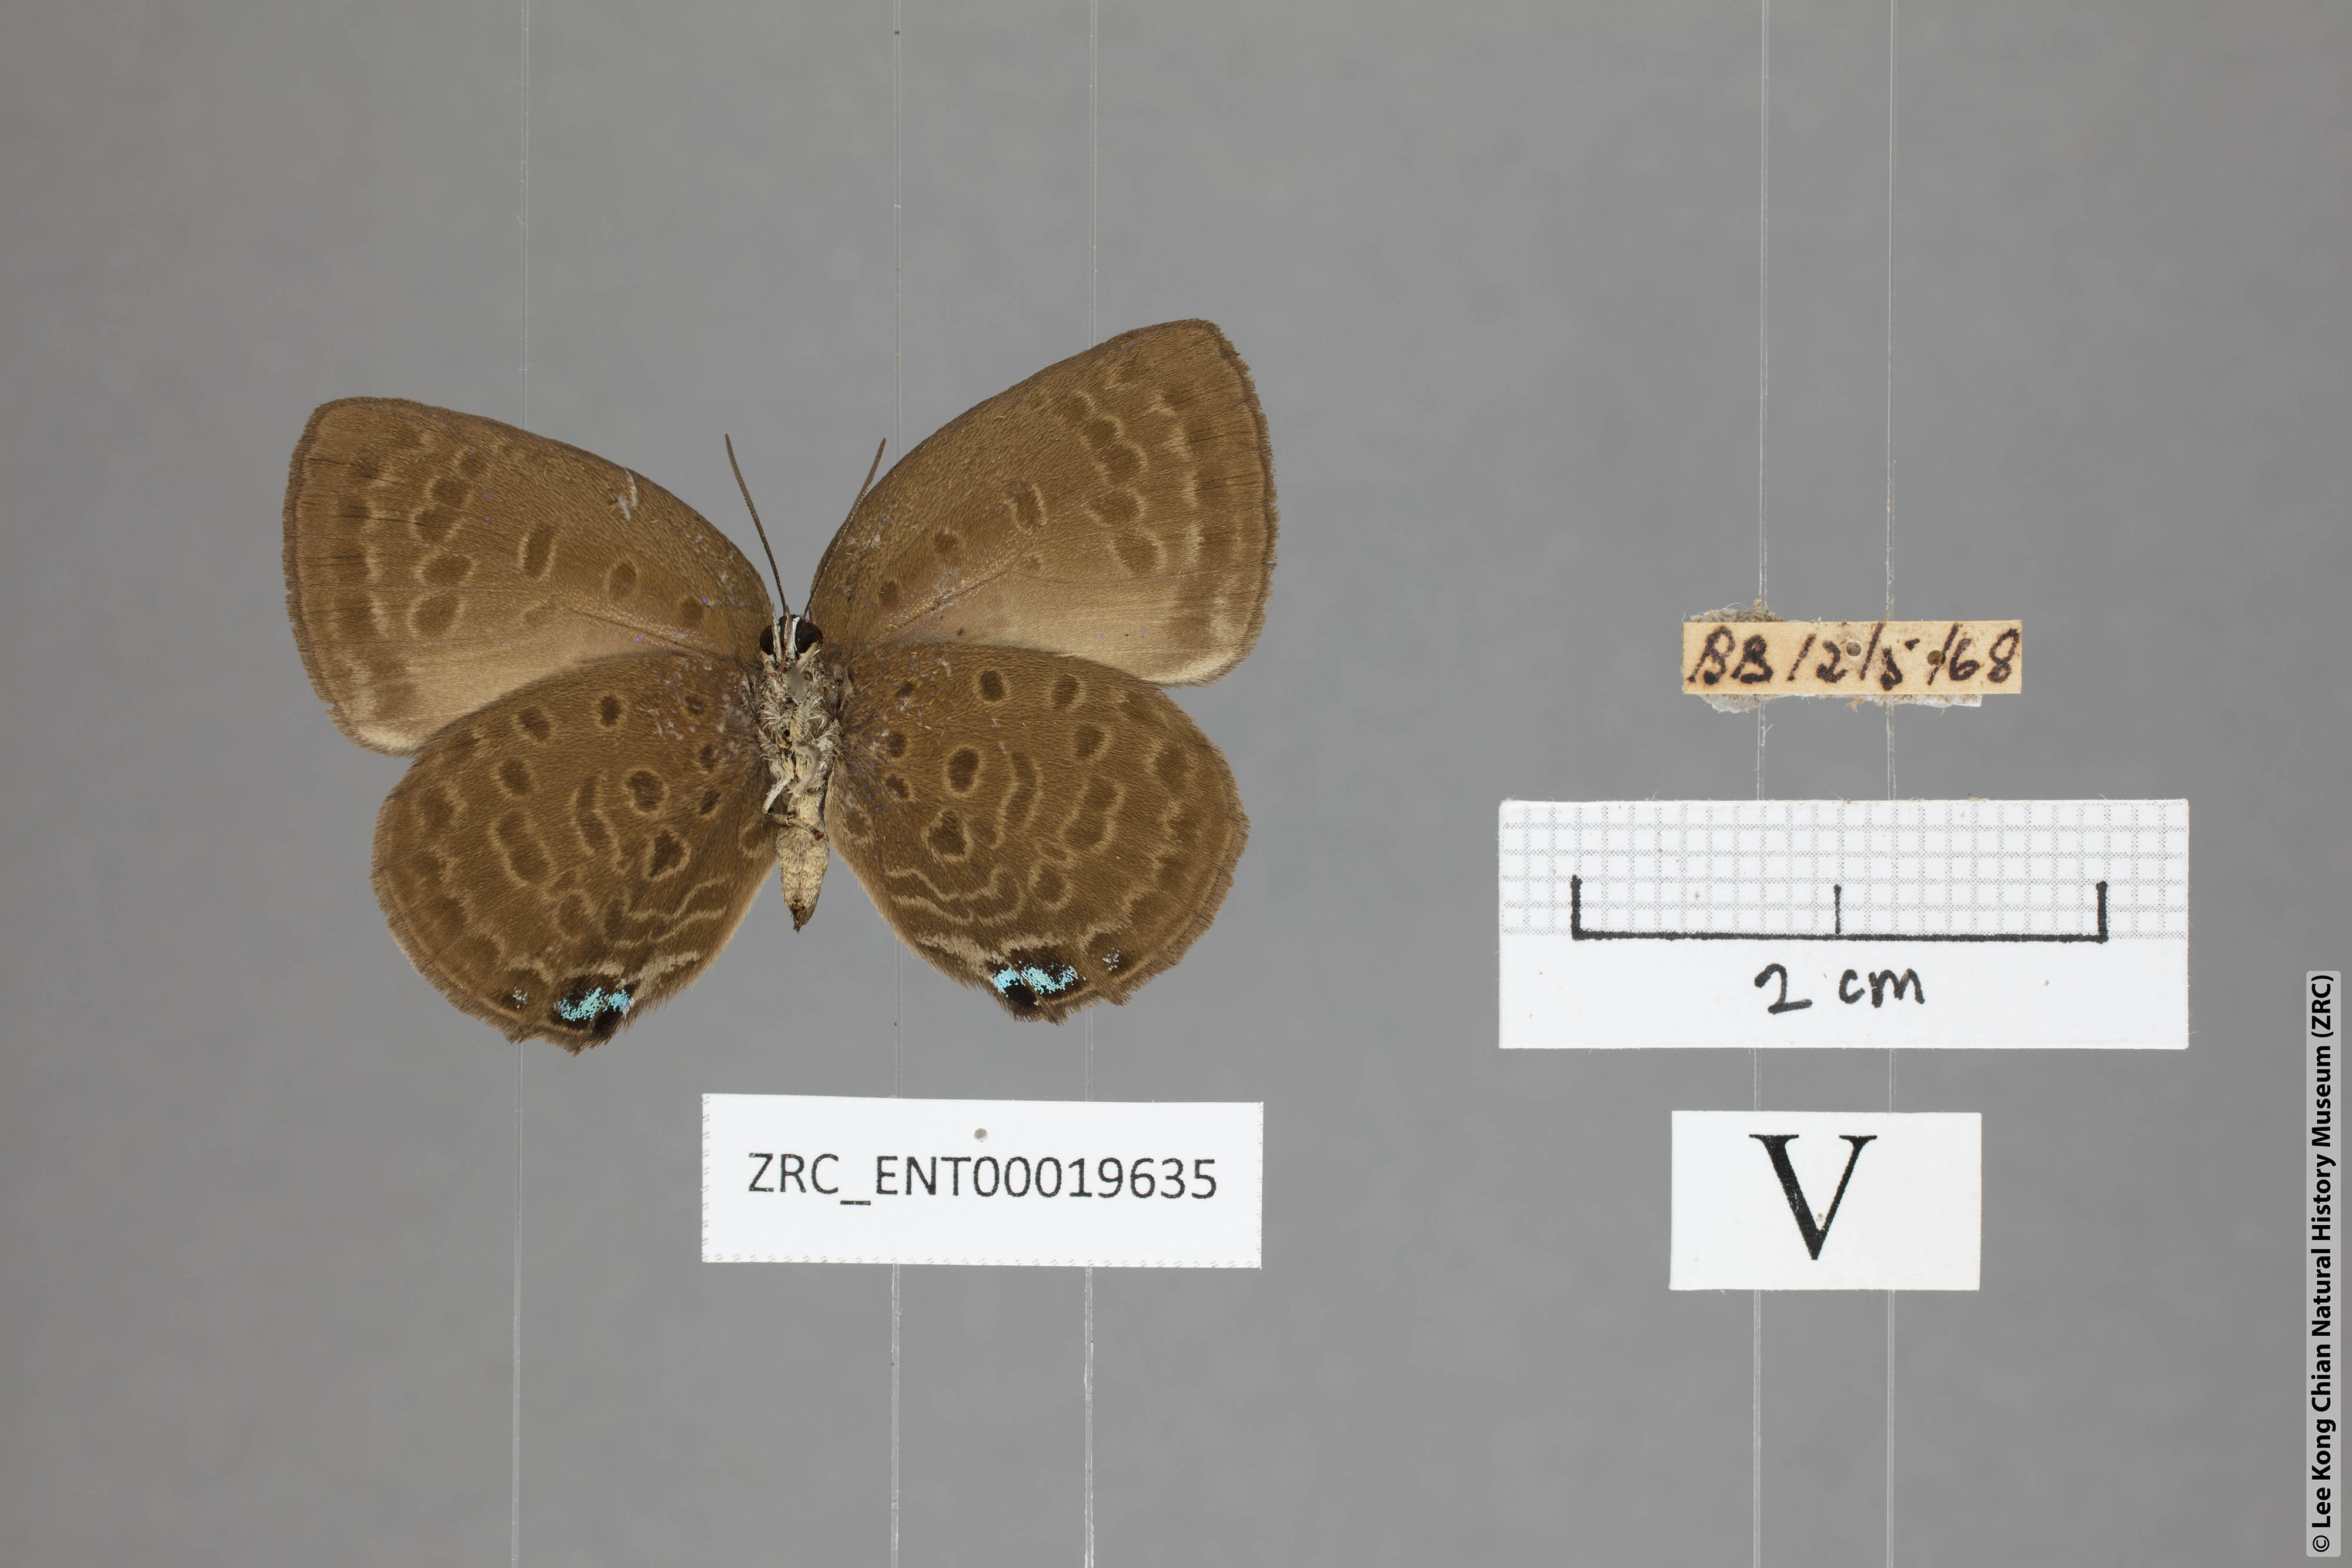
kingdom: Animalia
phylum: Arthropoda
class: Insecta
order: Lepidoptera
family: Lycaenidae
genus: Arhopala
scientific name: Arhopala major
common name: Major yellow oakblue
